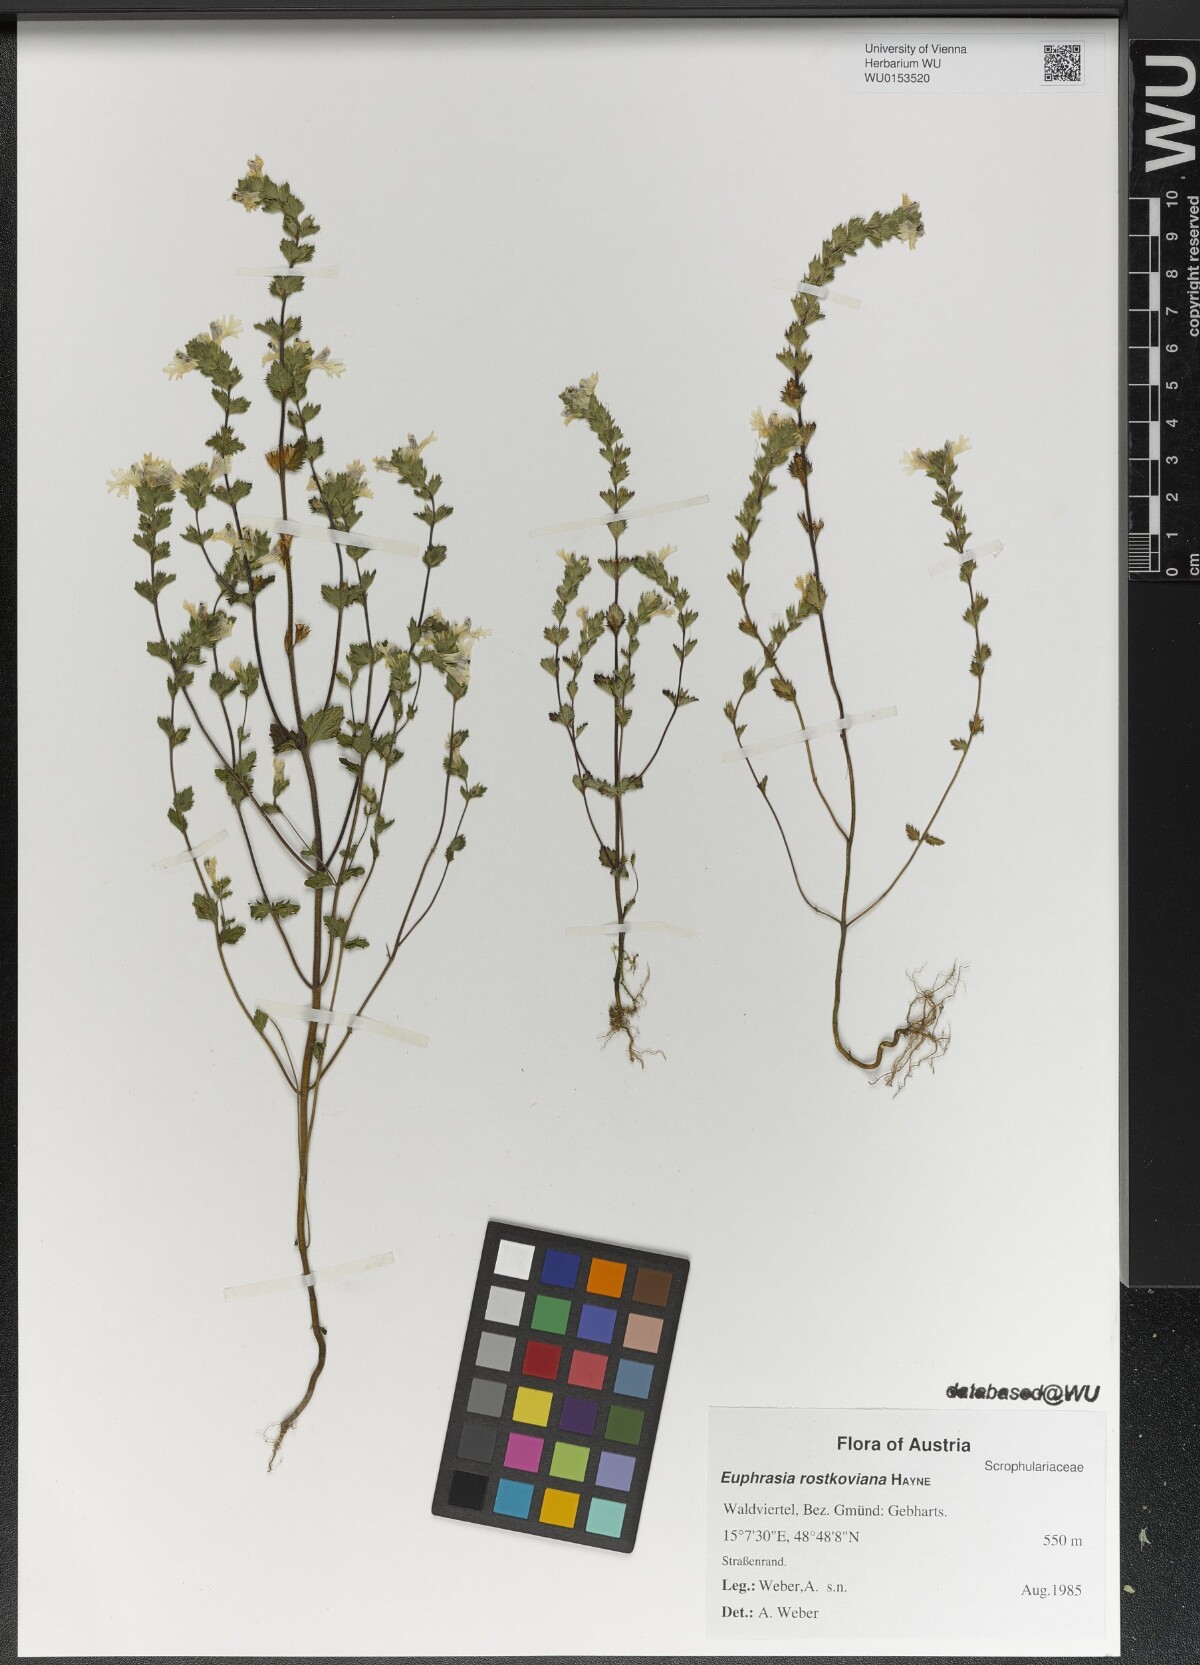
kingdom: Plantae
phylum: Tracheophyta
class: Magnoliopsida
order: Lamiales
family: Orobanchaceae
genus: Euphrasia
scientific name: Euphrasia officinalis
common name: Eyebright
